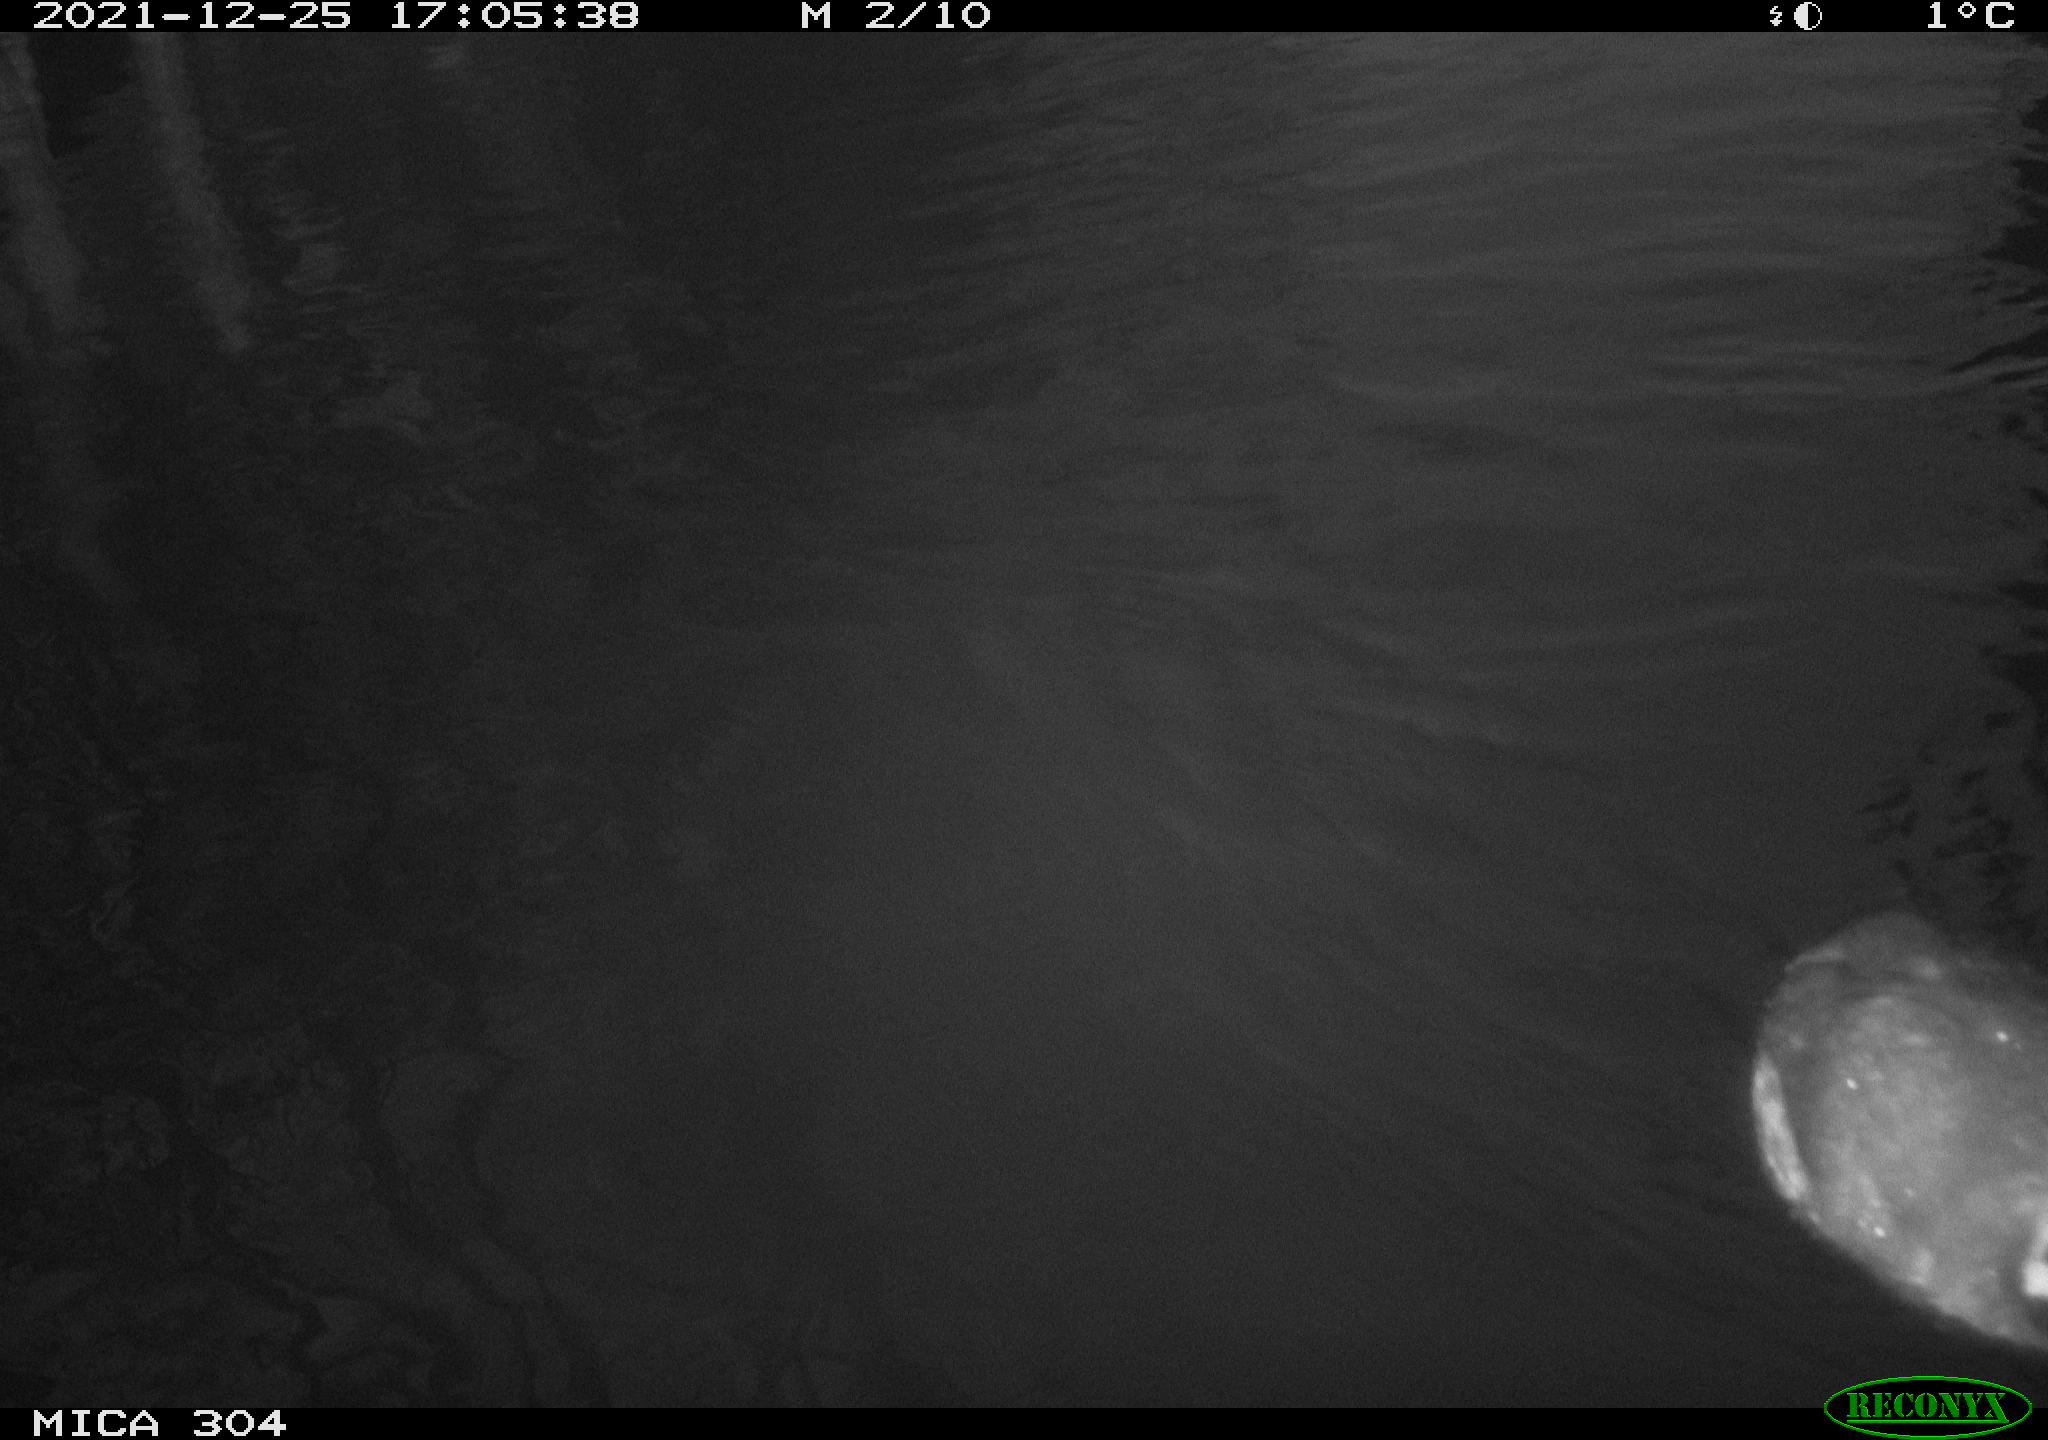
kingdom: Animalia
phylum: Chordata
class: Aves
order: Gruiformes
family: Rallidae
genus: Fulica
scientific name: Fulica atra
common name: Eurasian coot
